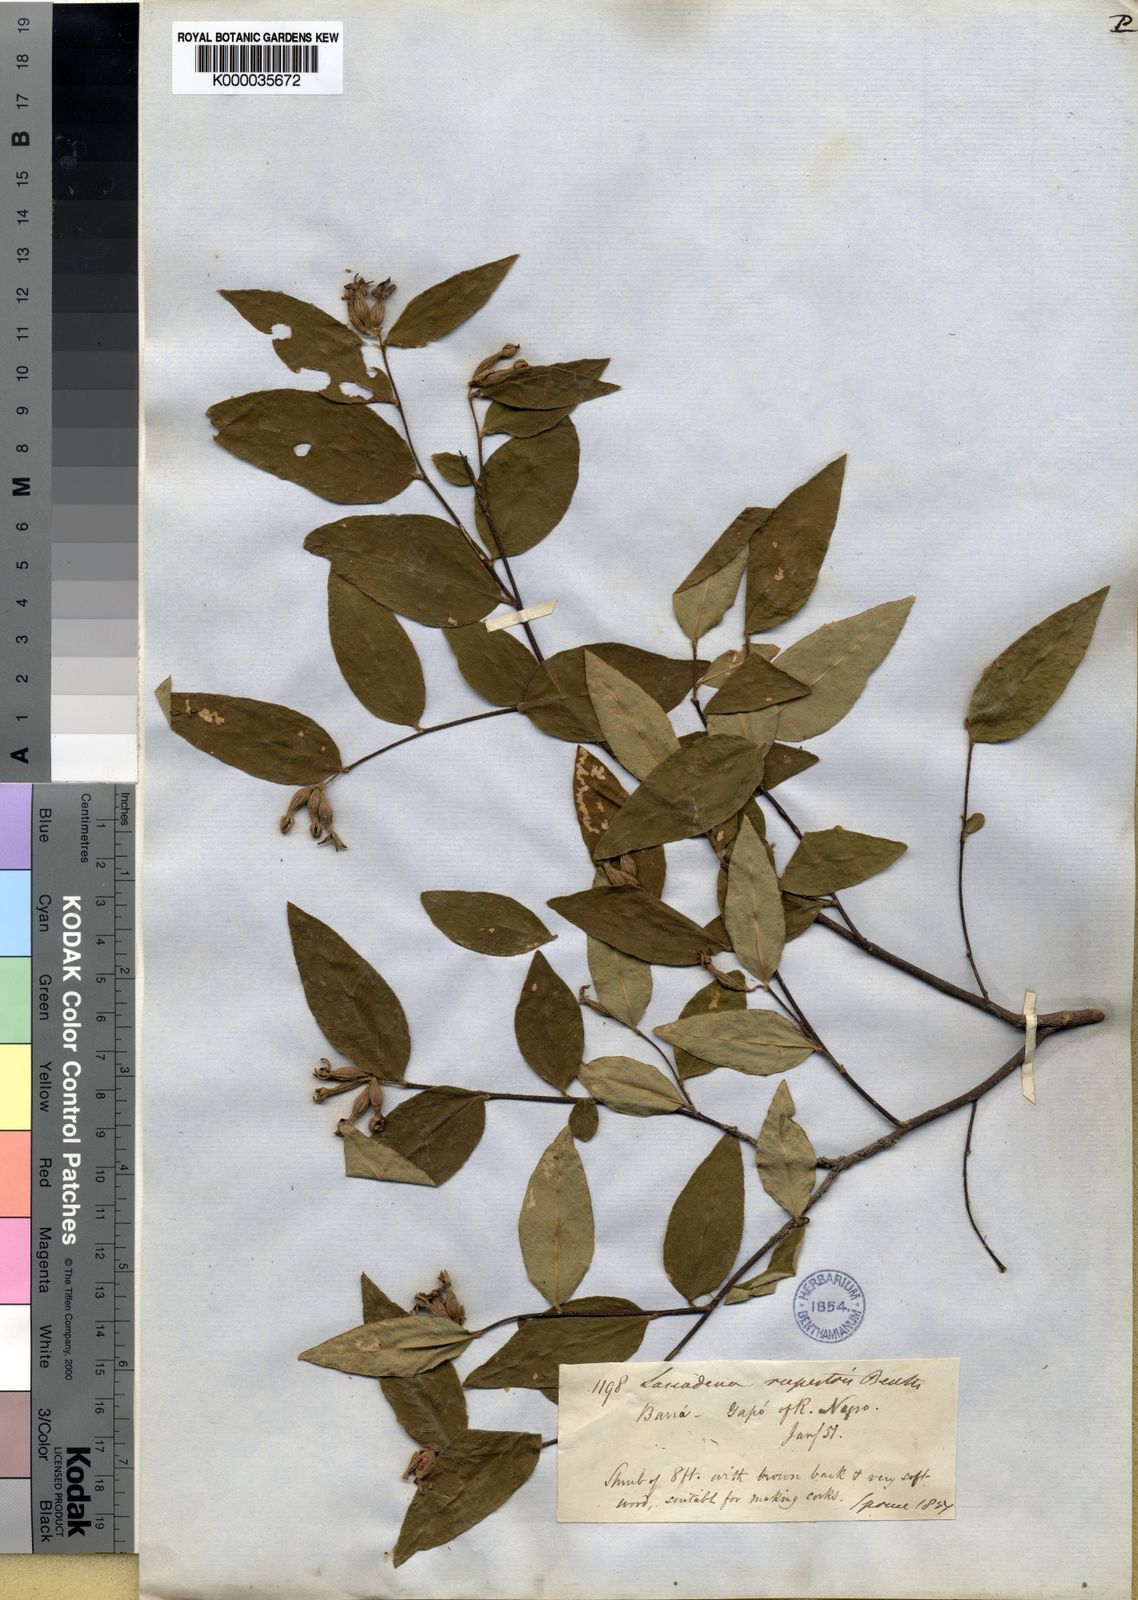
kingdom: Plantae
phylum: Tracheophyta
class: Magnoliopsida
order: Malvales
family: Thymelaeaceae
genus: Lasiadenia
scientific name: Lasiadenia rupestris
